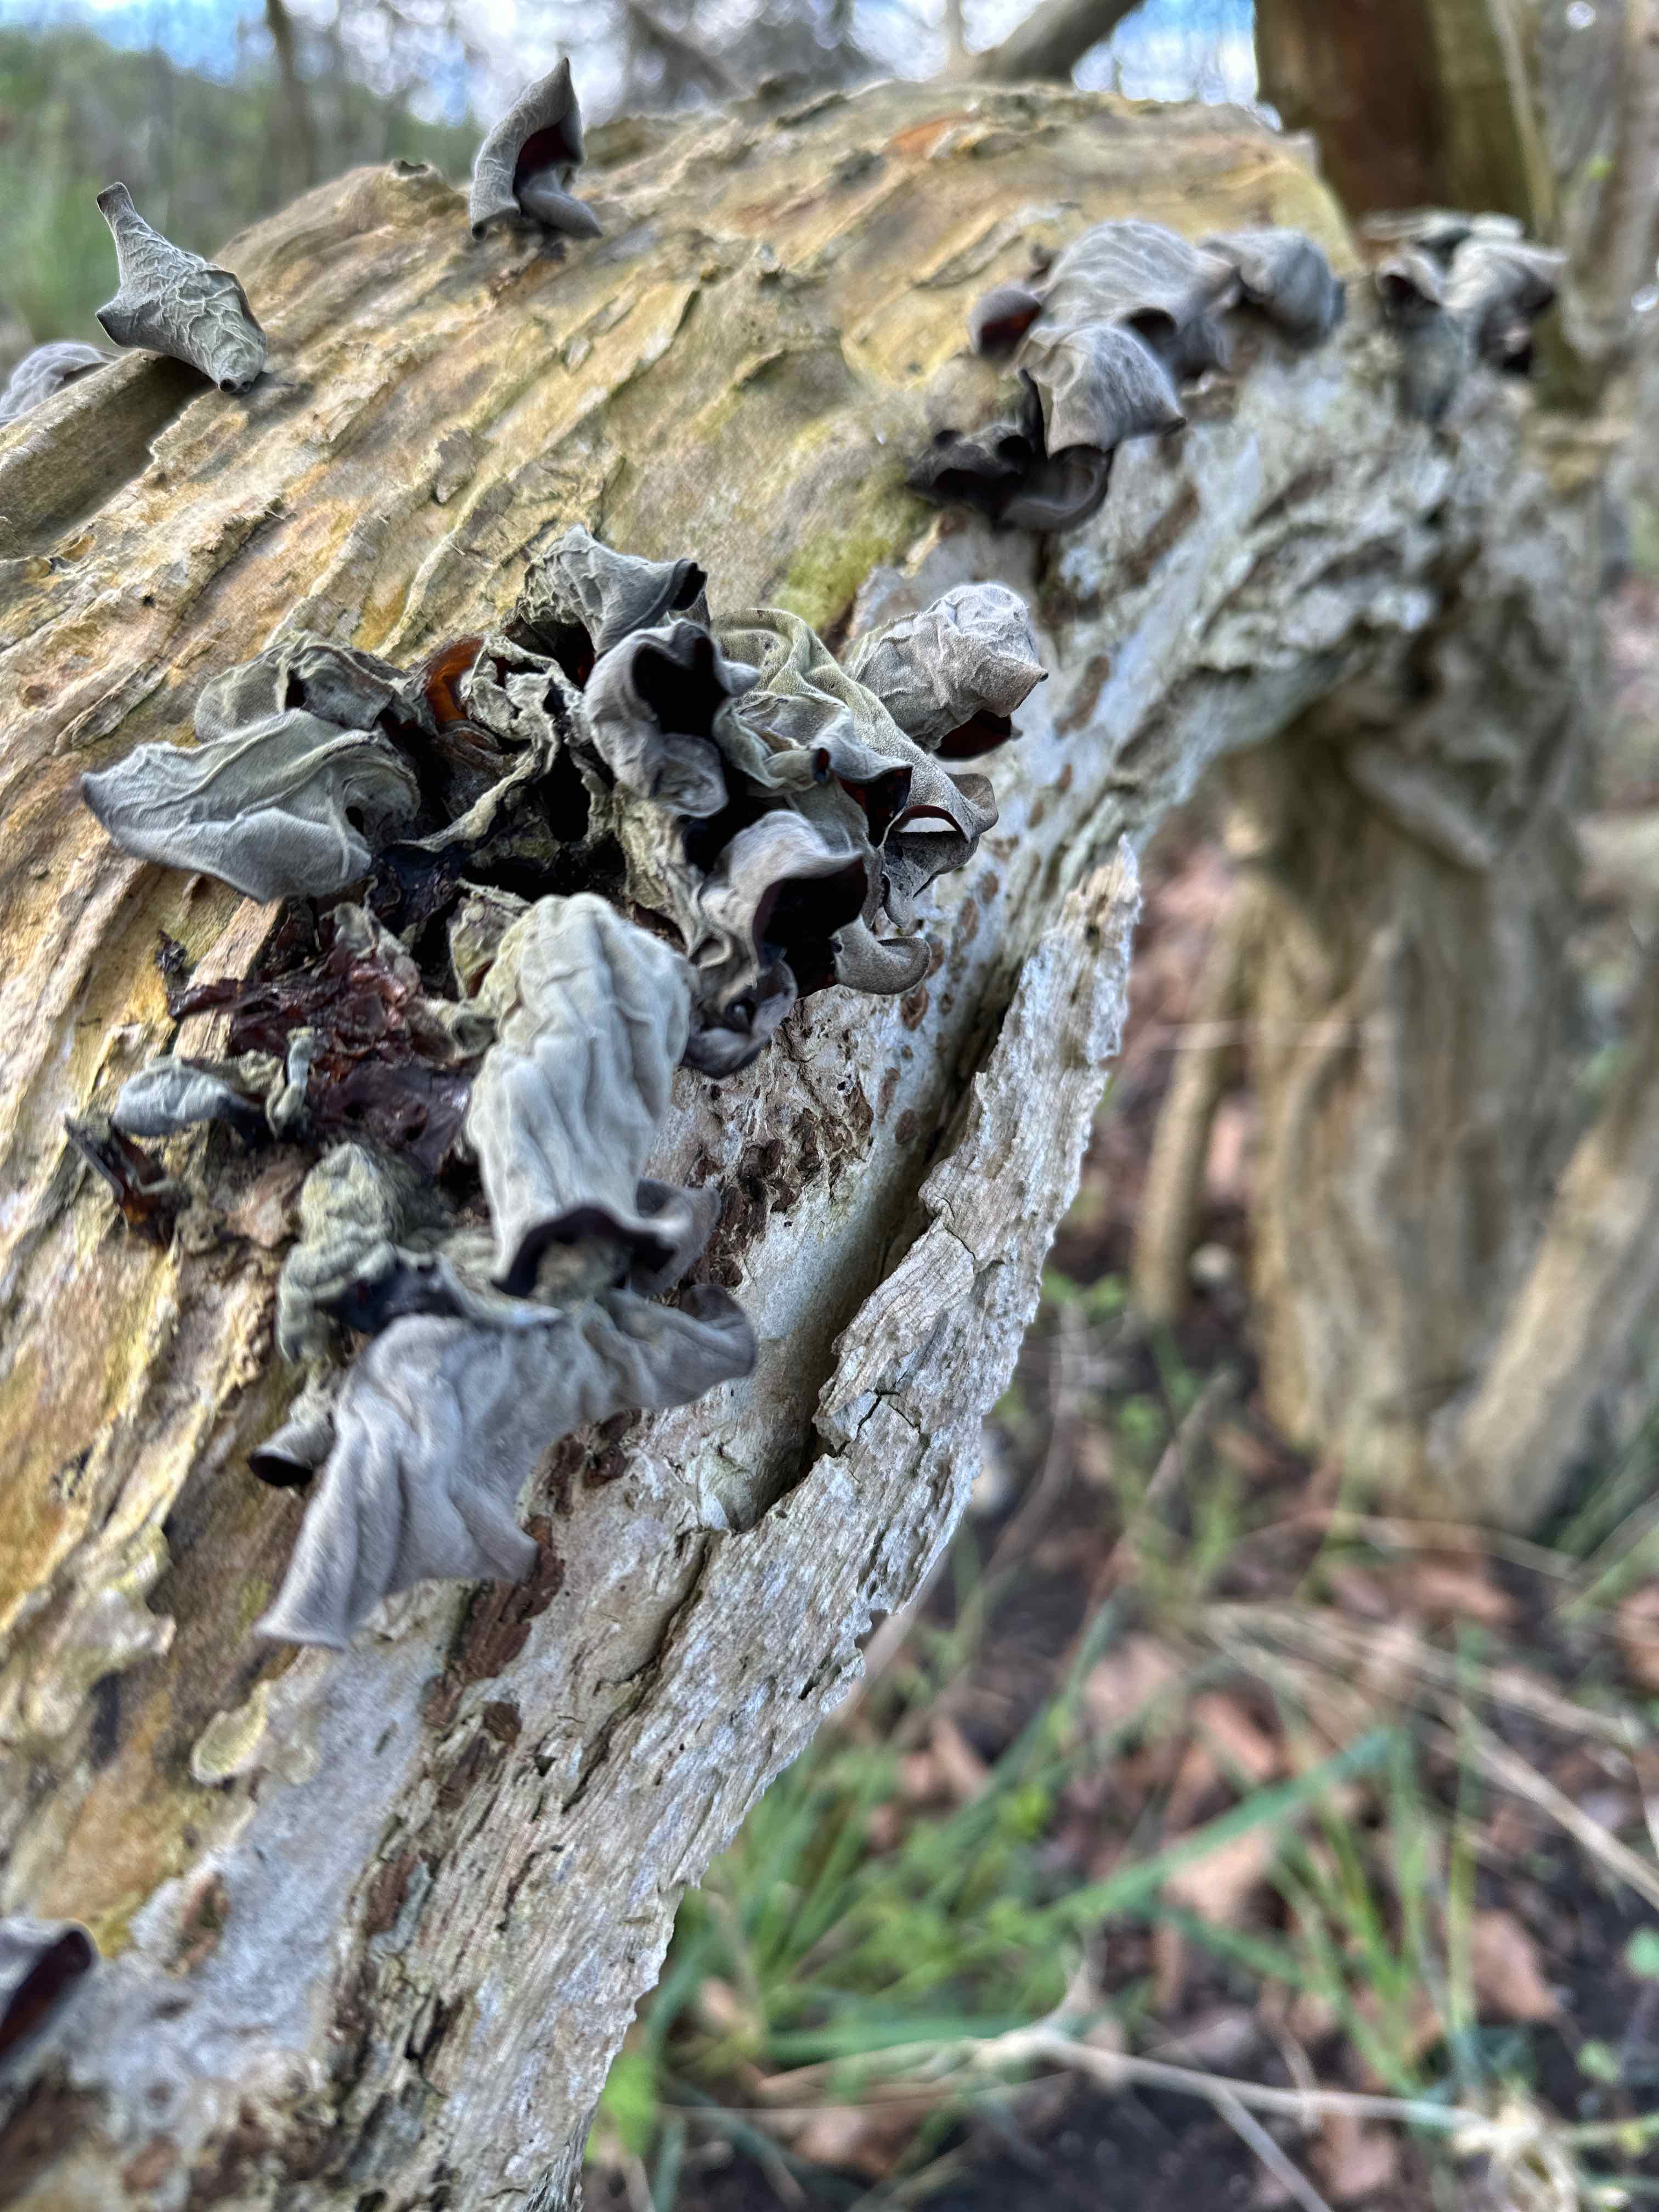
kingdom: Fungi
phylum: Basidiomycota
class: Agaricomycetes
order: Auriculariales
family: Auriculariaceae
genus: Auricularia
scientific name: Auricularia auricula-judae
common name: almindelig judasøre
